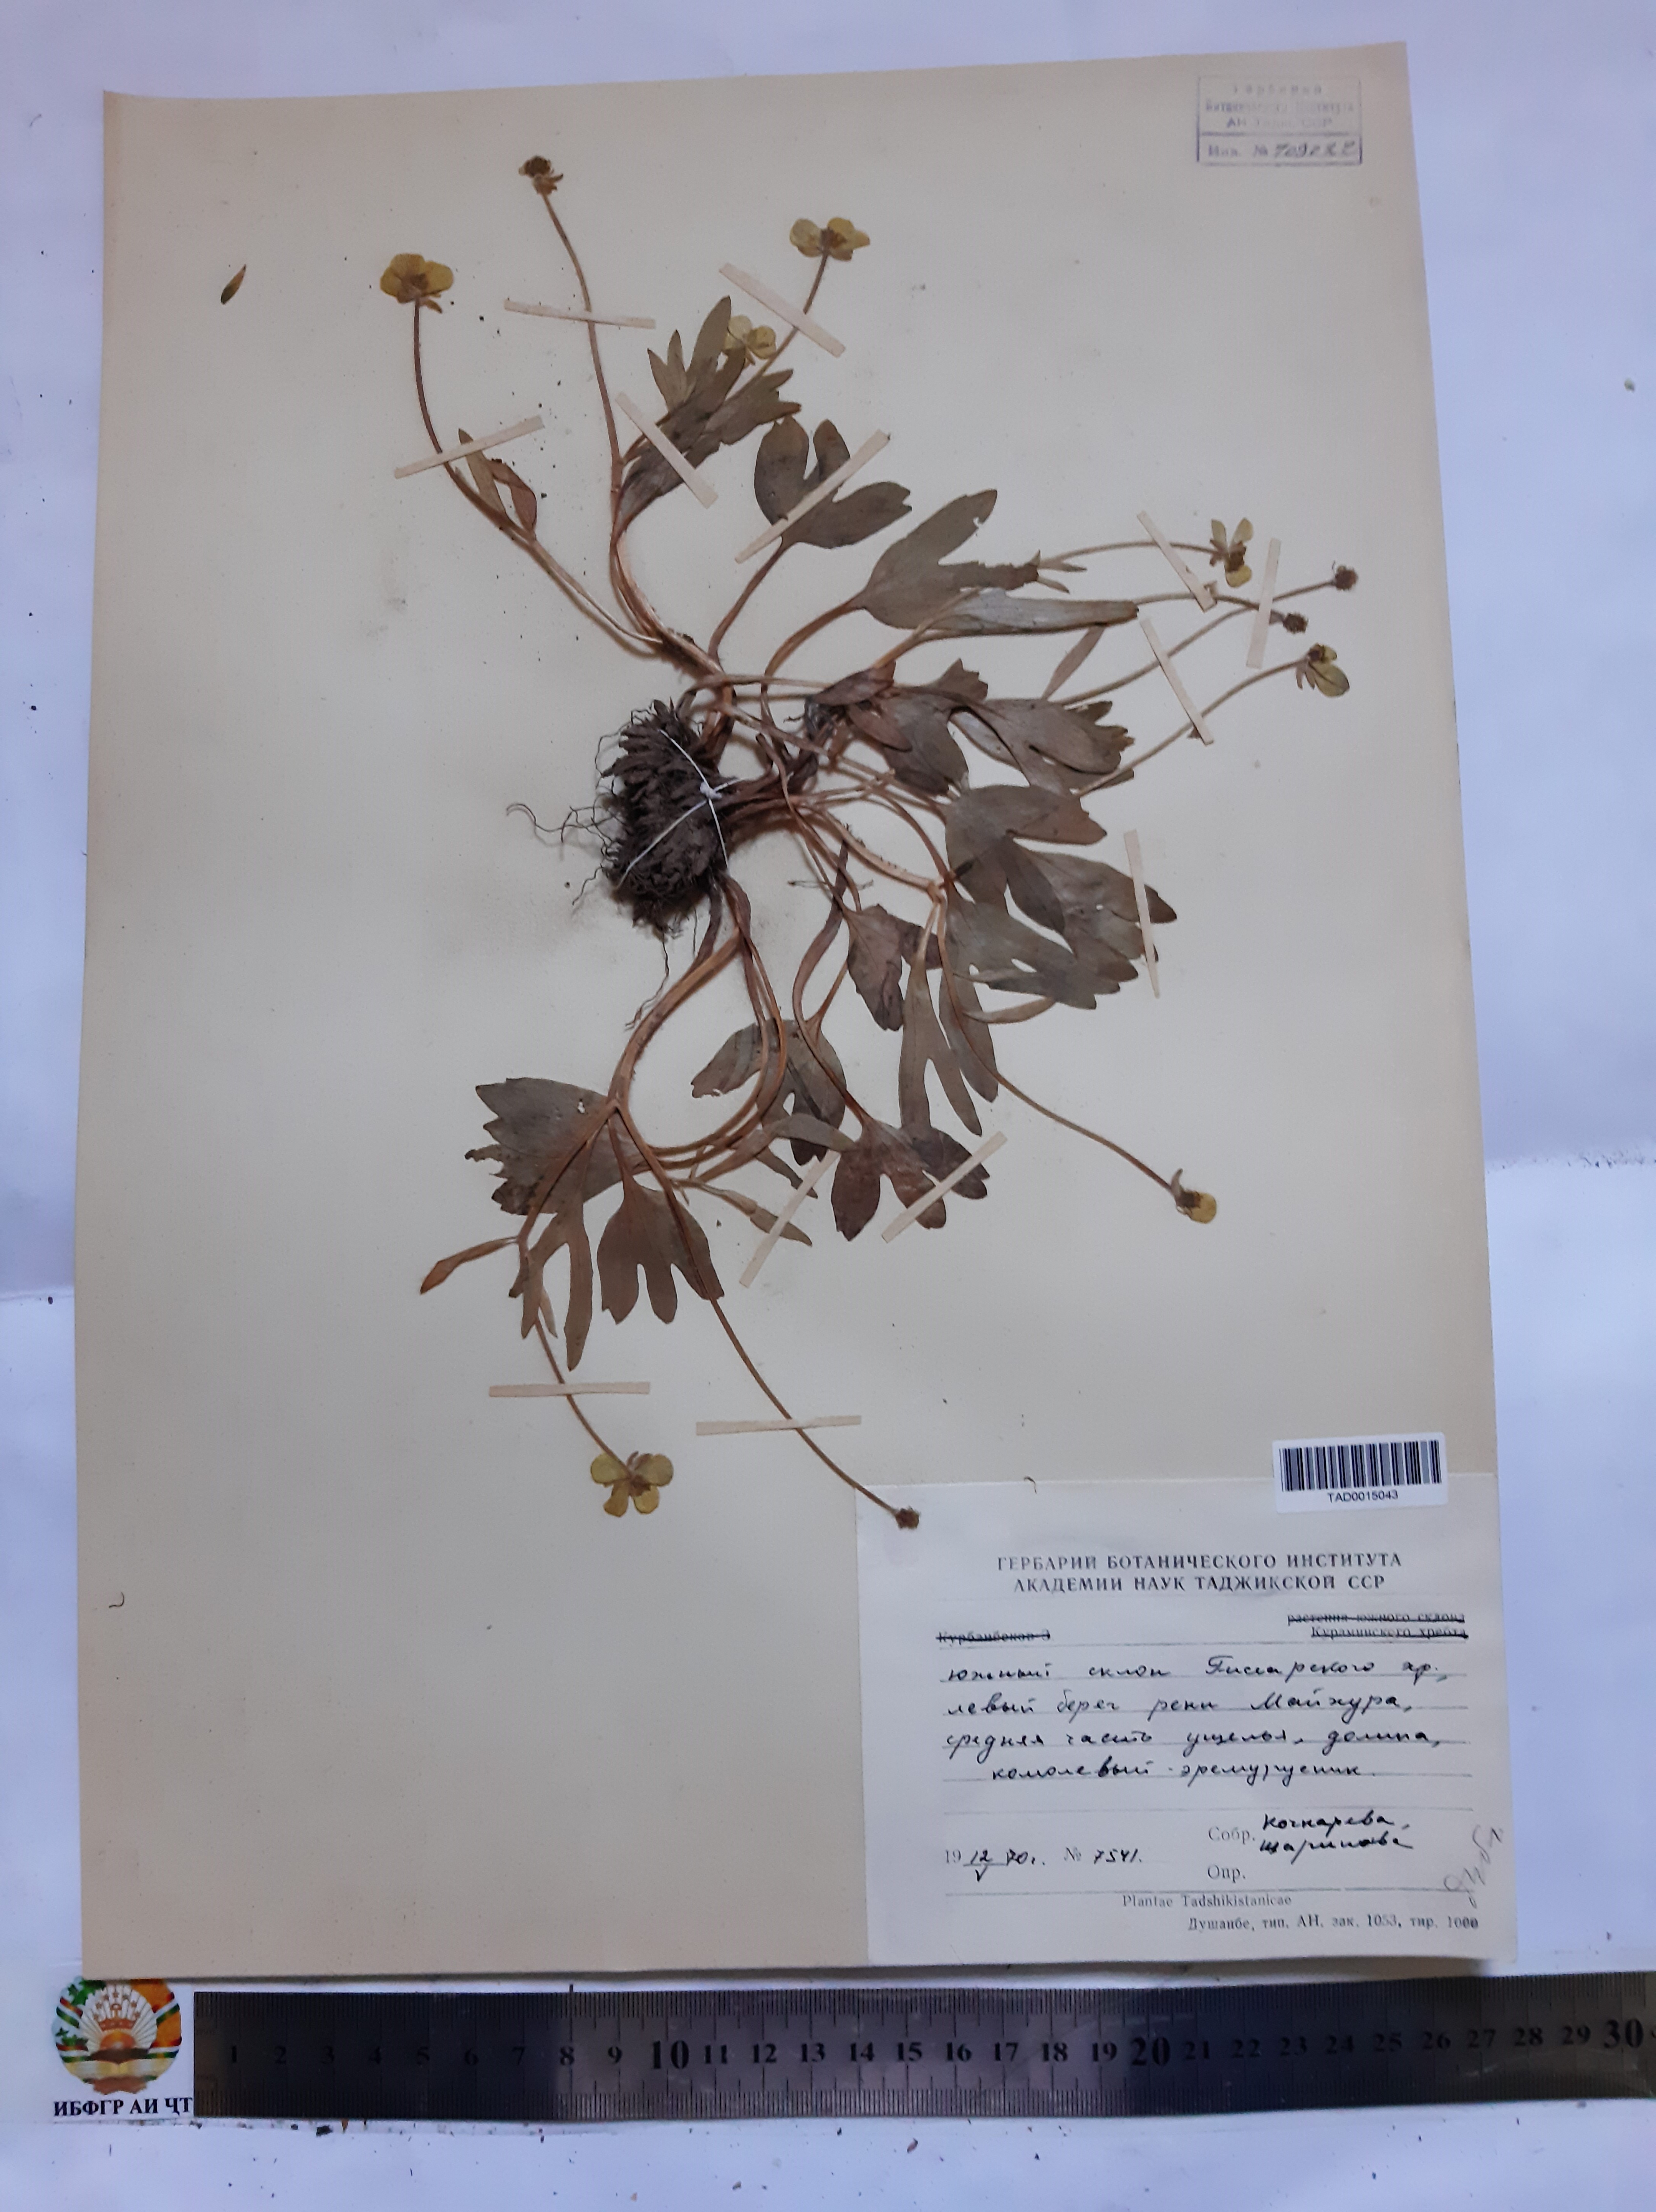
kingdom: Plantae
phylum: Tracheophyta
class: Magnoliopsida
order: Ranunculales
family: Ranunculaceae
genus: Ranunculus
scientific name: Ranunculus paucidentatus
